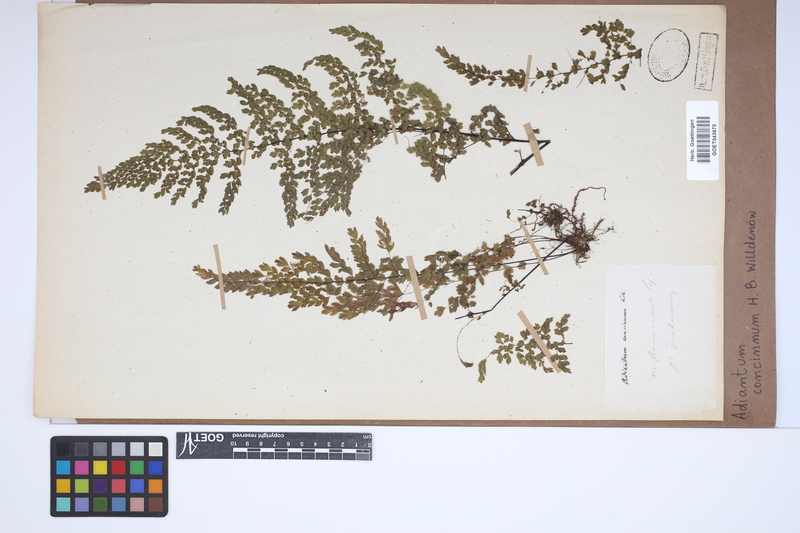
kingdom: Plantae
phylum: Tracheophyta
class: Polypodiopsida
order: Polypodiales
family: Pteridaceae
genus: Adiantum
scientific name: Adiantum concinnum
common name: Brittle maidenhair fern
